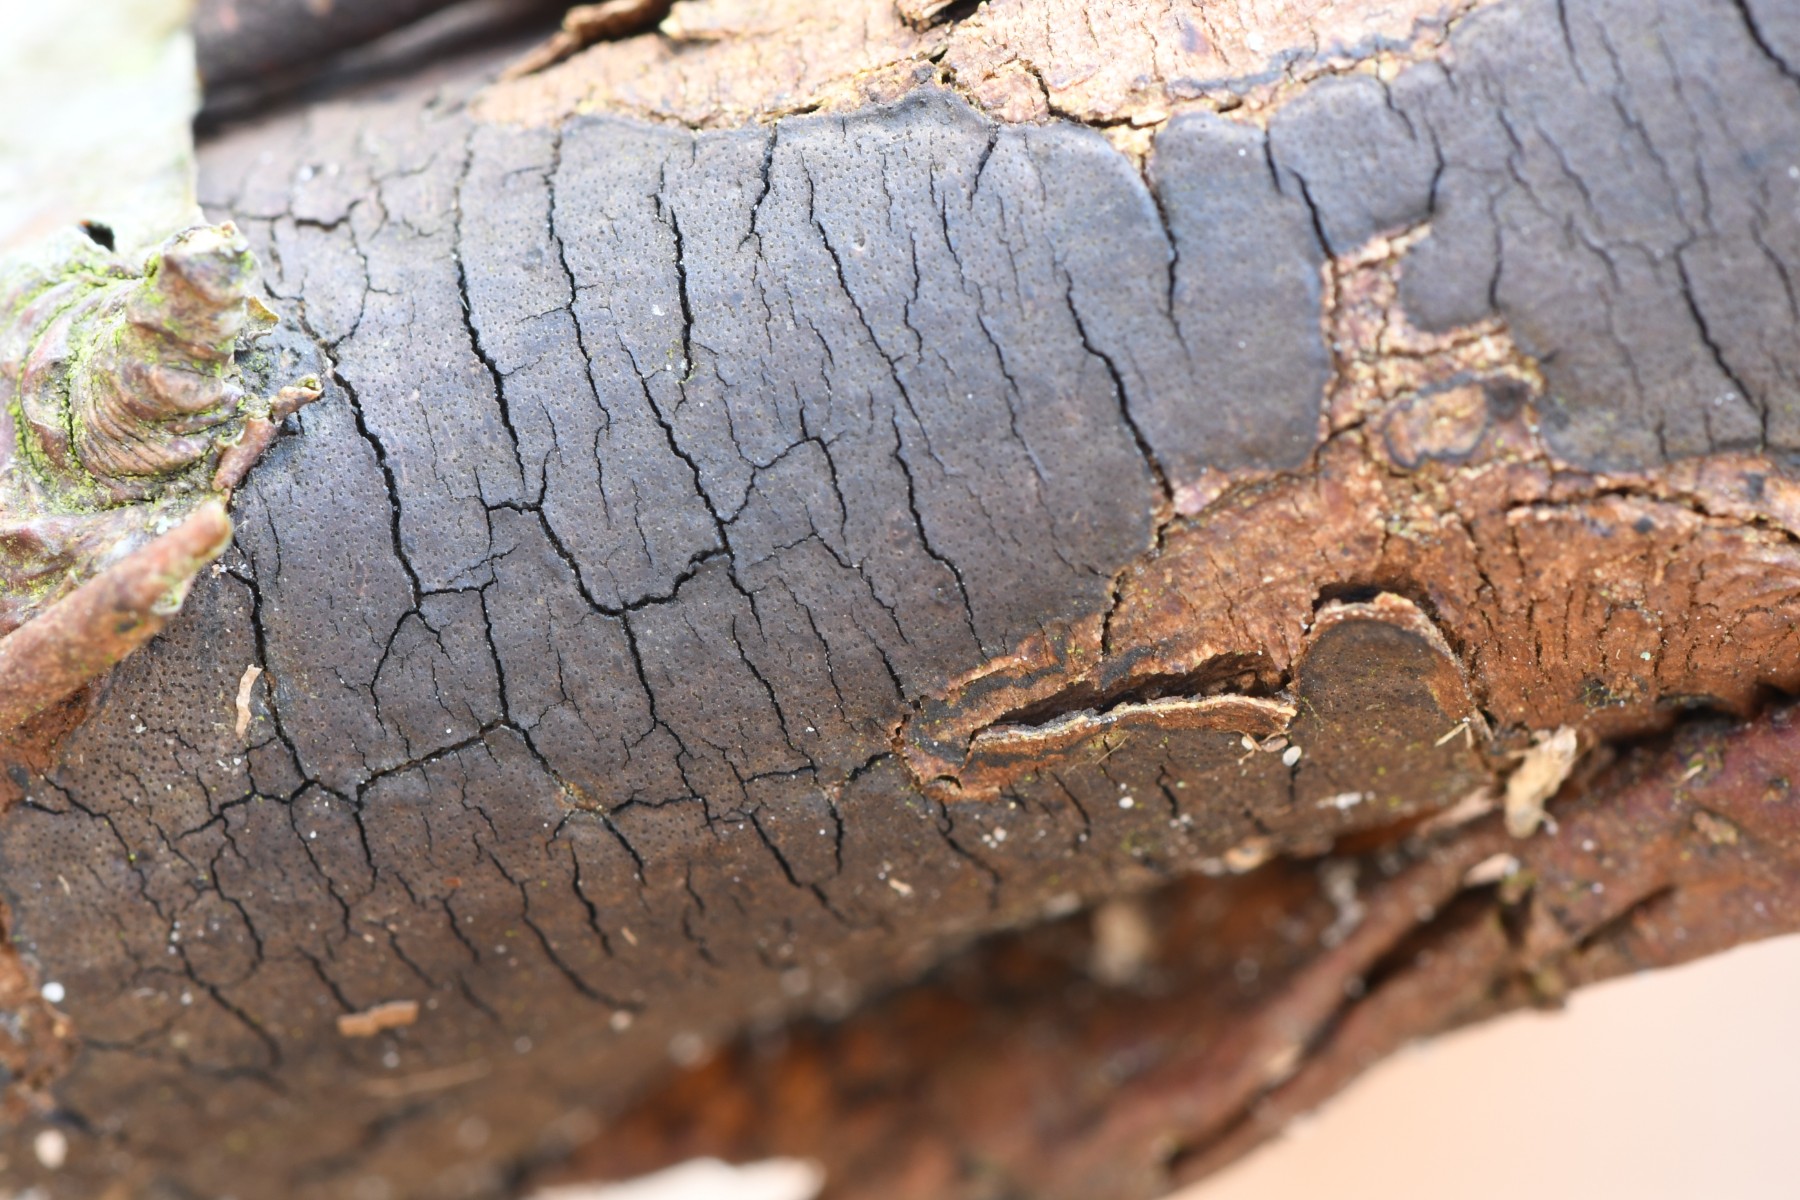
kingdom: Fungi
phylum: Ascomycota
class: Sordariomycetes
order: Xylariales
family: Diatrypaceae
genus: Diatrype
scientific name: Diatrype decorticata
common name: barksprænger-kulskorpe
